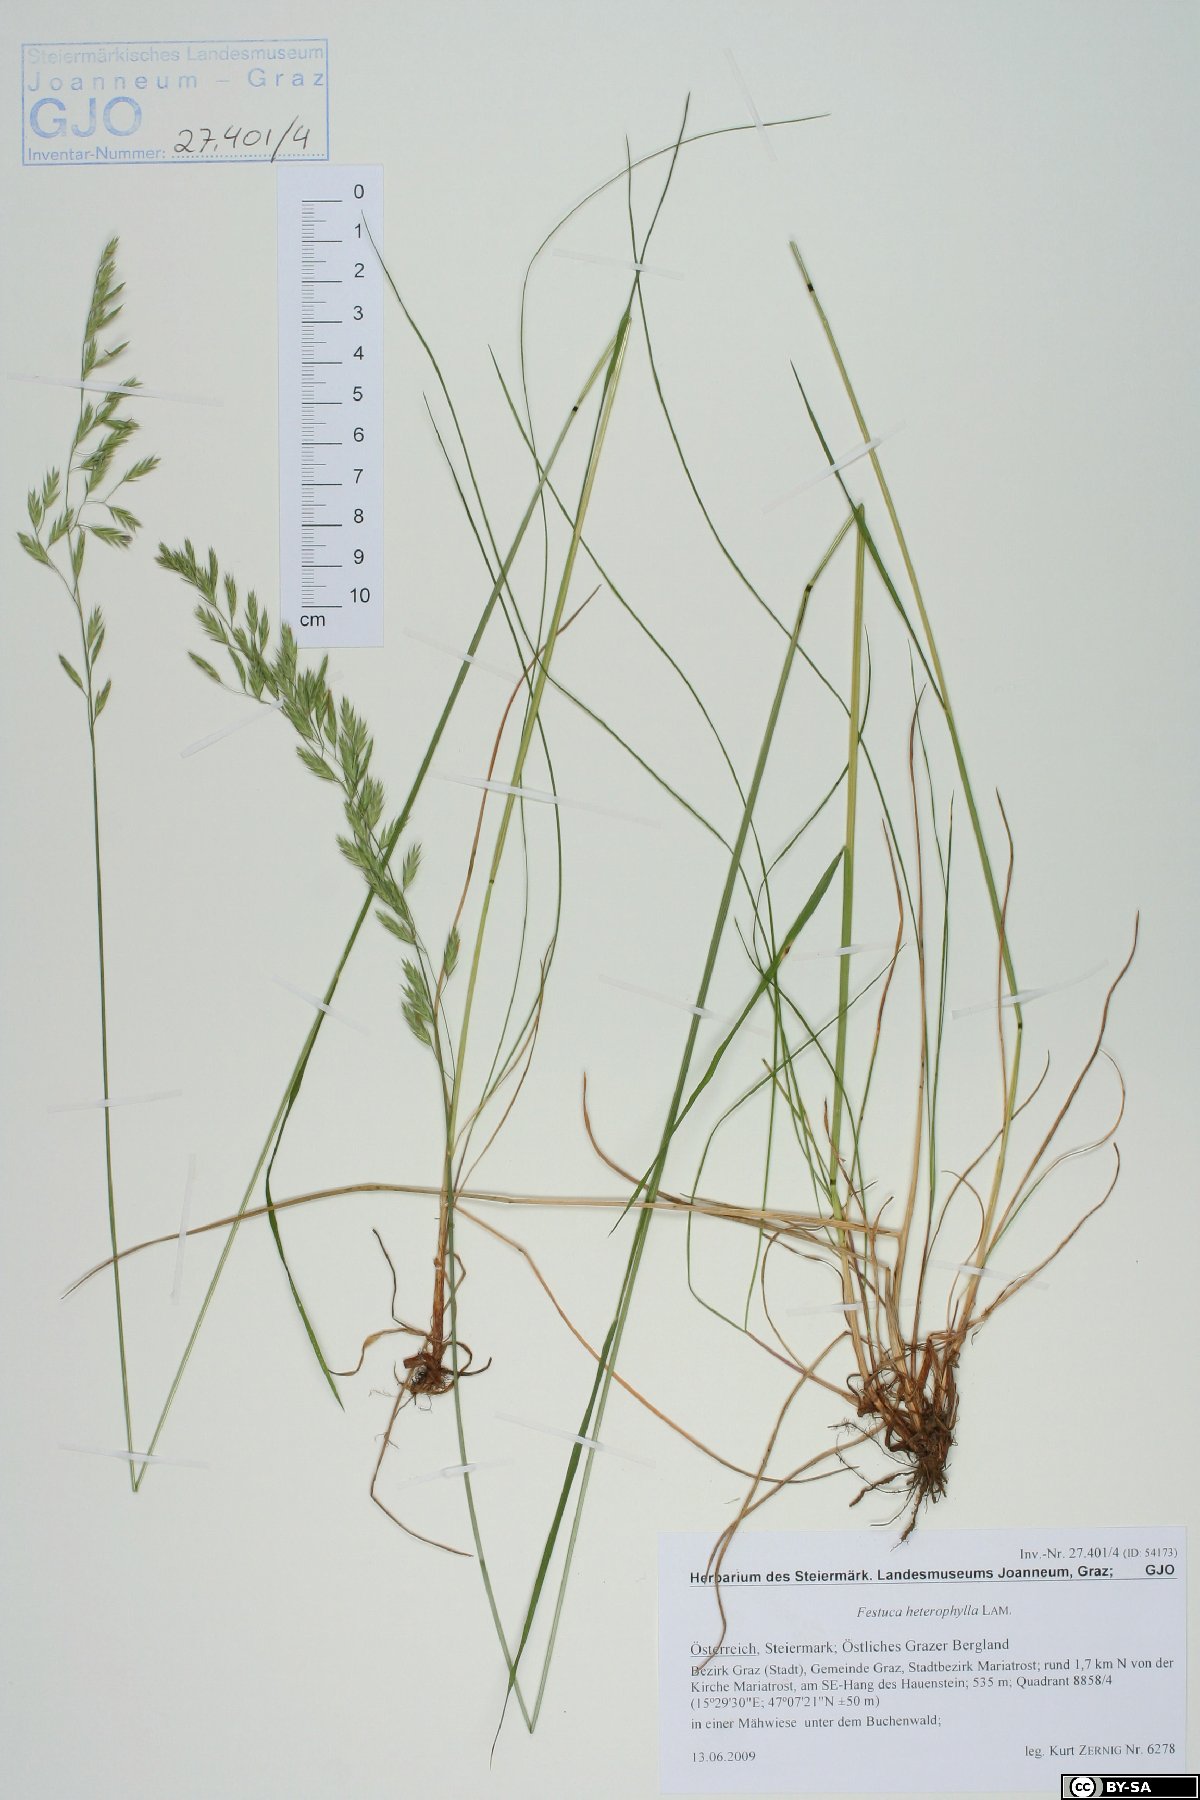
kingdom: Plantae
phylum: Tracheophyta
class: Liliopsida
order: Poales
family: Poaceae
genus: Festuca
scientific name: Festuca heterophylla
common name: Various-leaved fescue
